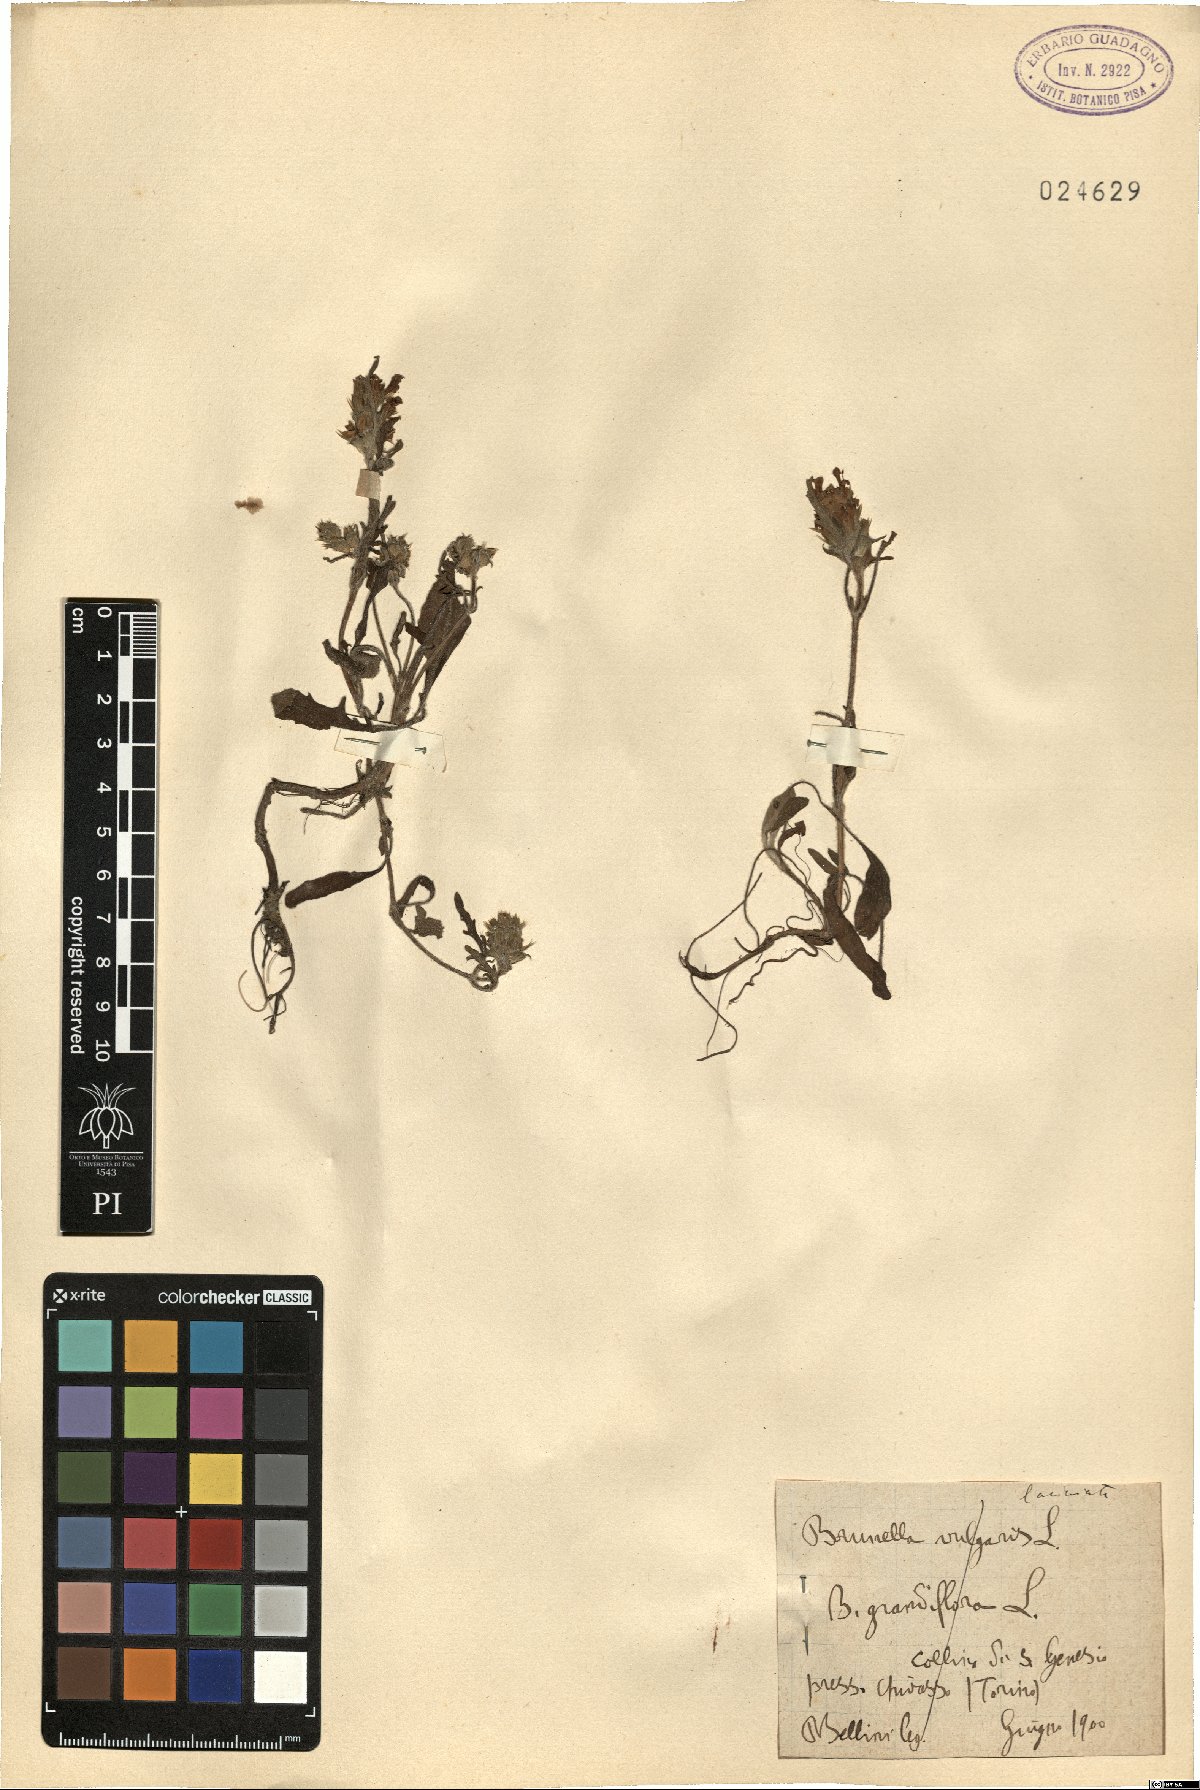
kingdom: Plantae
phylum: Tracheophyta
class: Magnoliopsida
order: Lamiales
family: Lamiaceae
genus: Prunella
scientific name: Prunella vulgaris
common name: Heal-all
